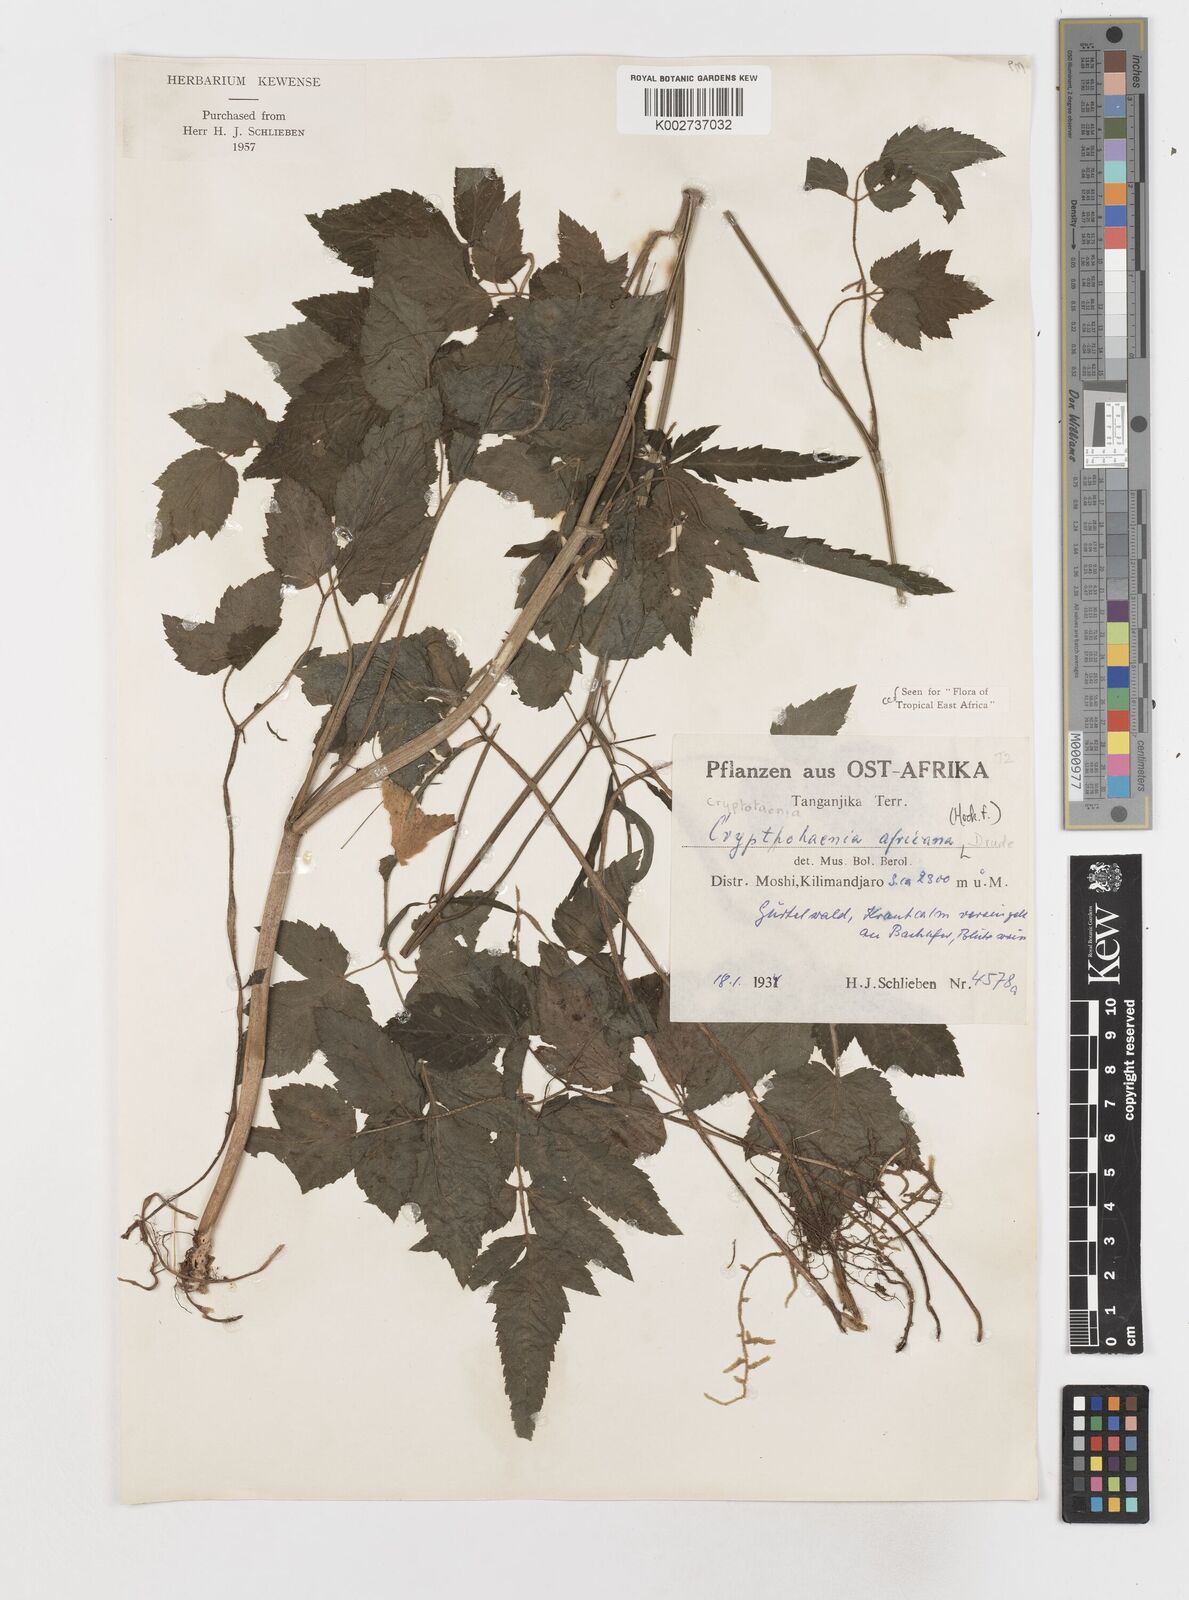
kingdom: Plantae
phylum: Tracheophyta
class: Magnoliopsida
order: Apiales
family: Apiaceae
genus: Cryptotaenia
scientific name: Cryptotaenia africana
